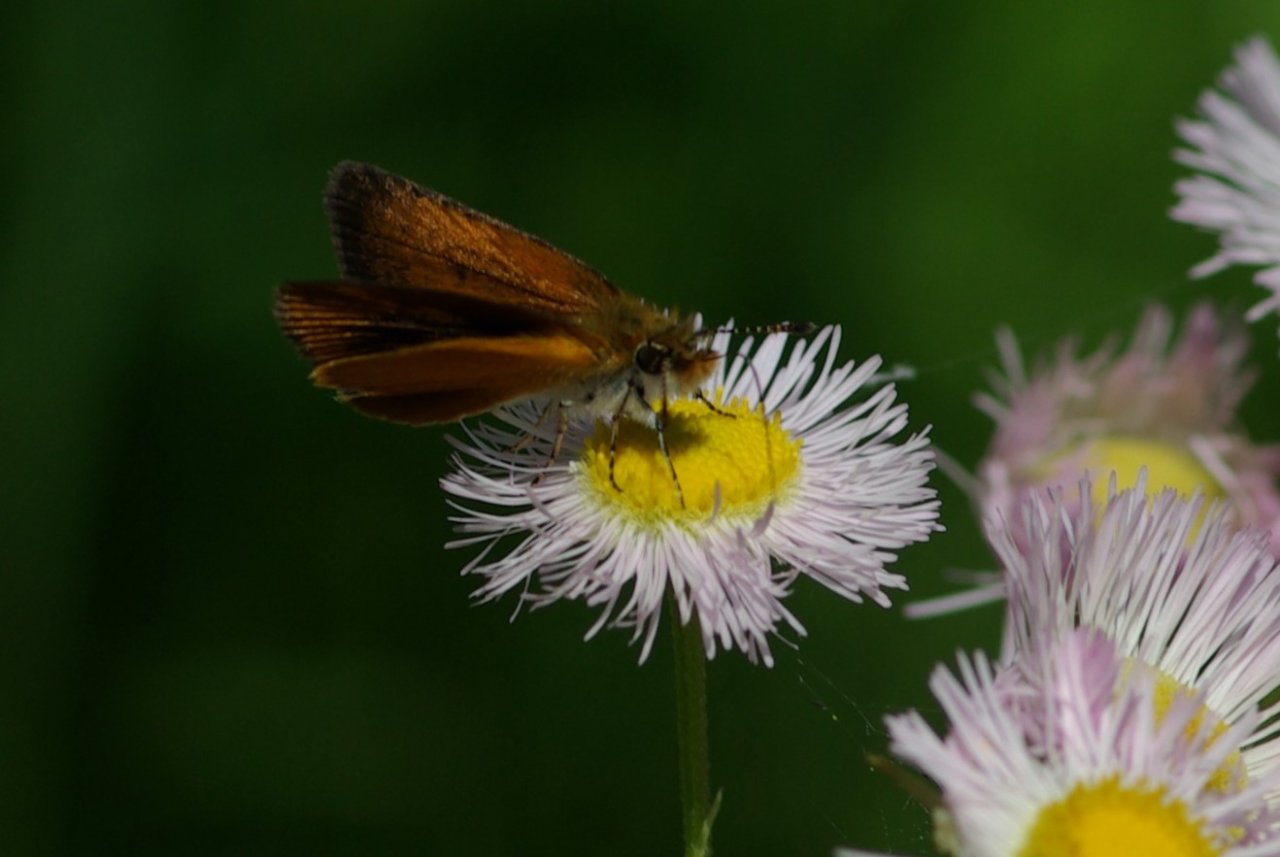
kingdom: Animalia
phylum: Arthropoda
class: Insecta
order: Lepidoptera
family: Hesperiidae
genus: Ancyloxypha
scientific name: Ancyloxypha numitor
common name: Least Skipper
